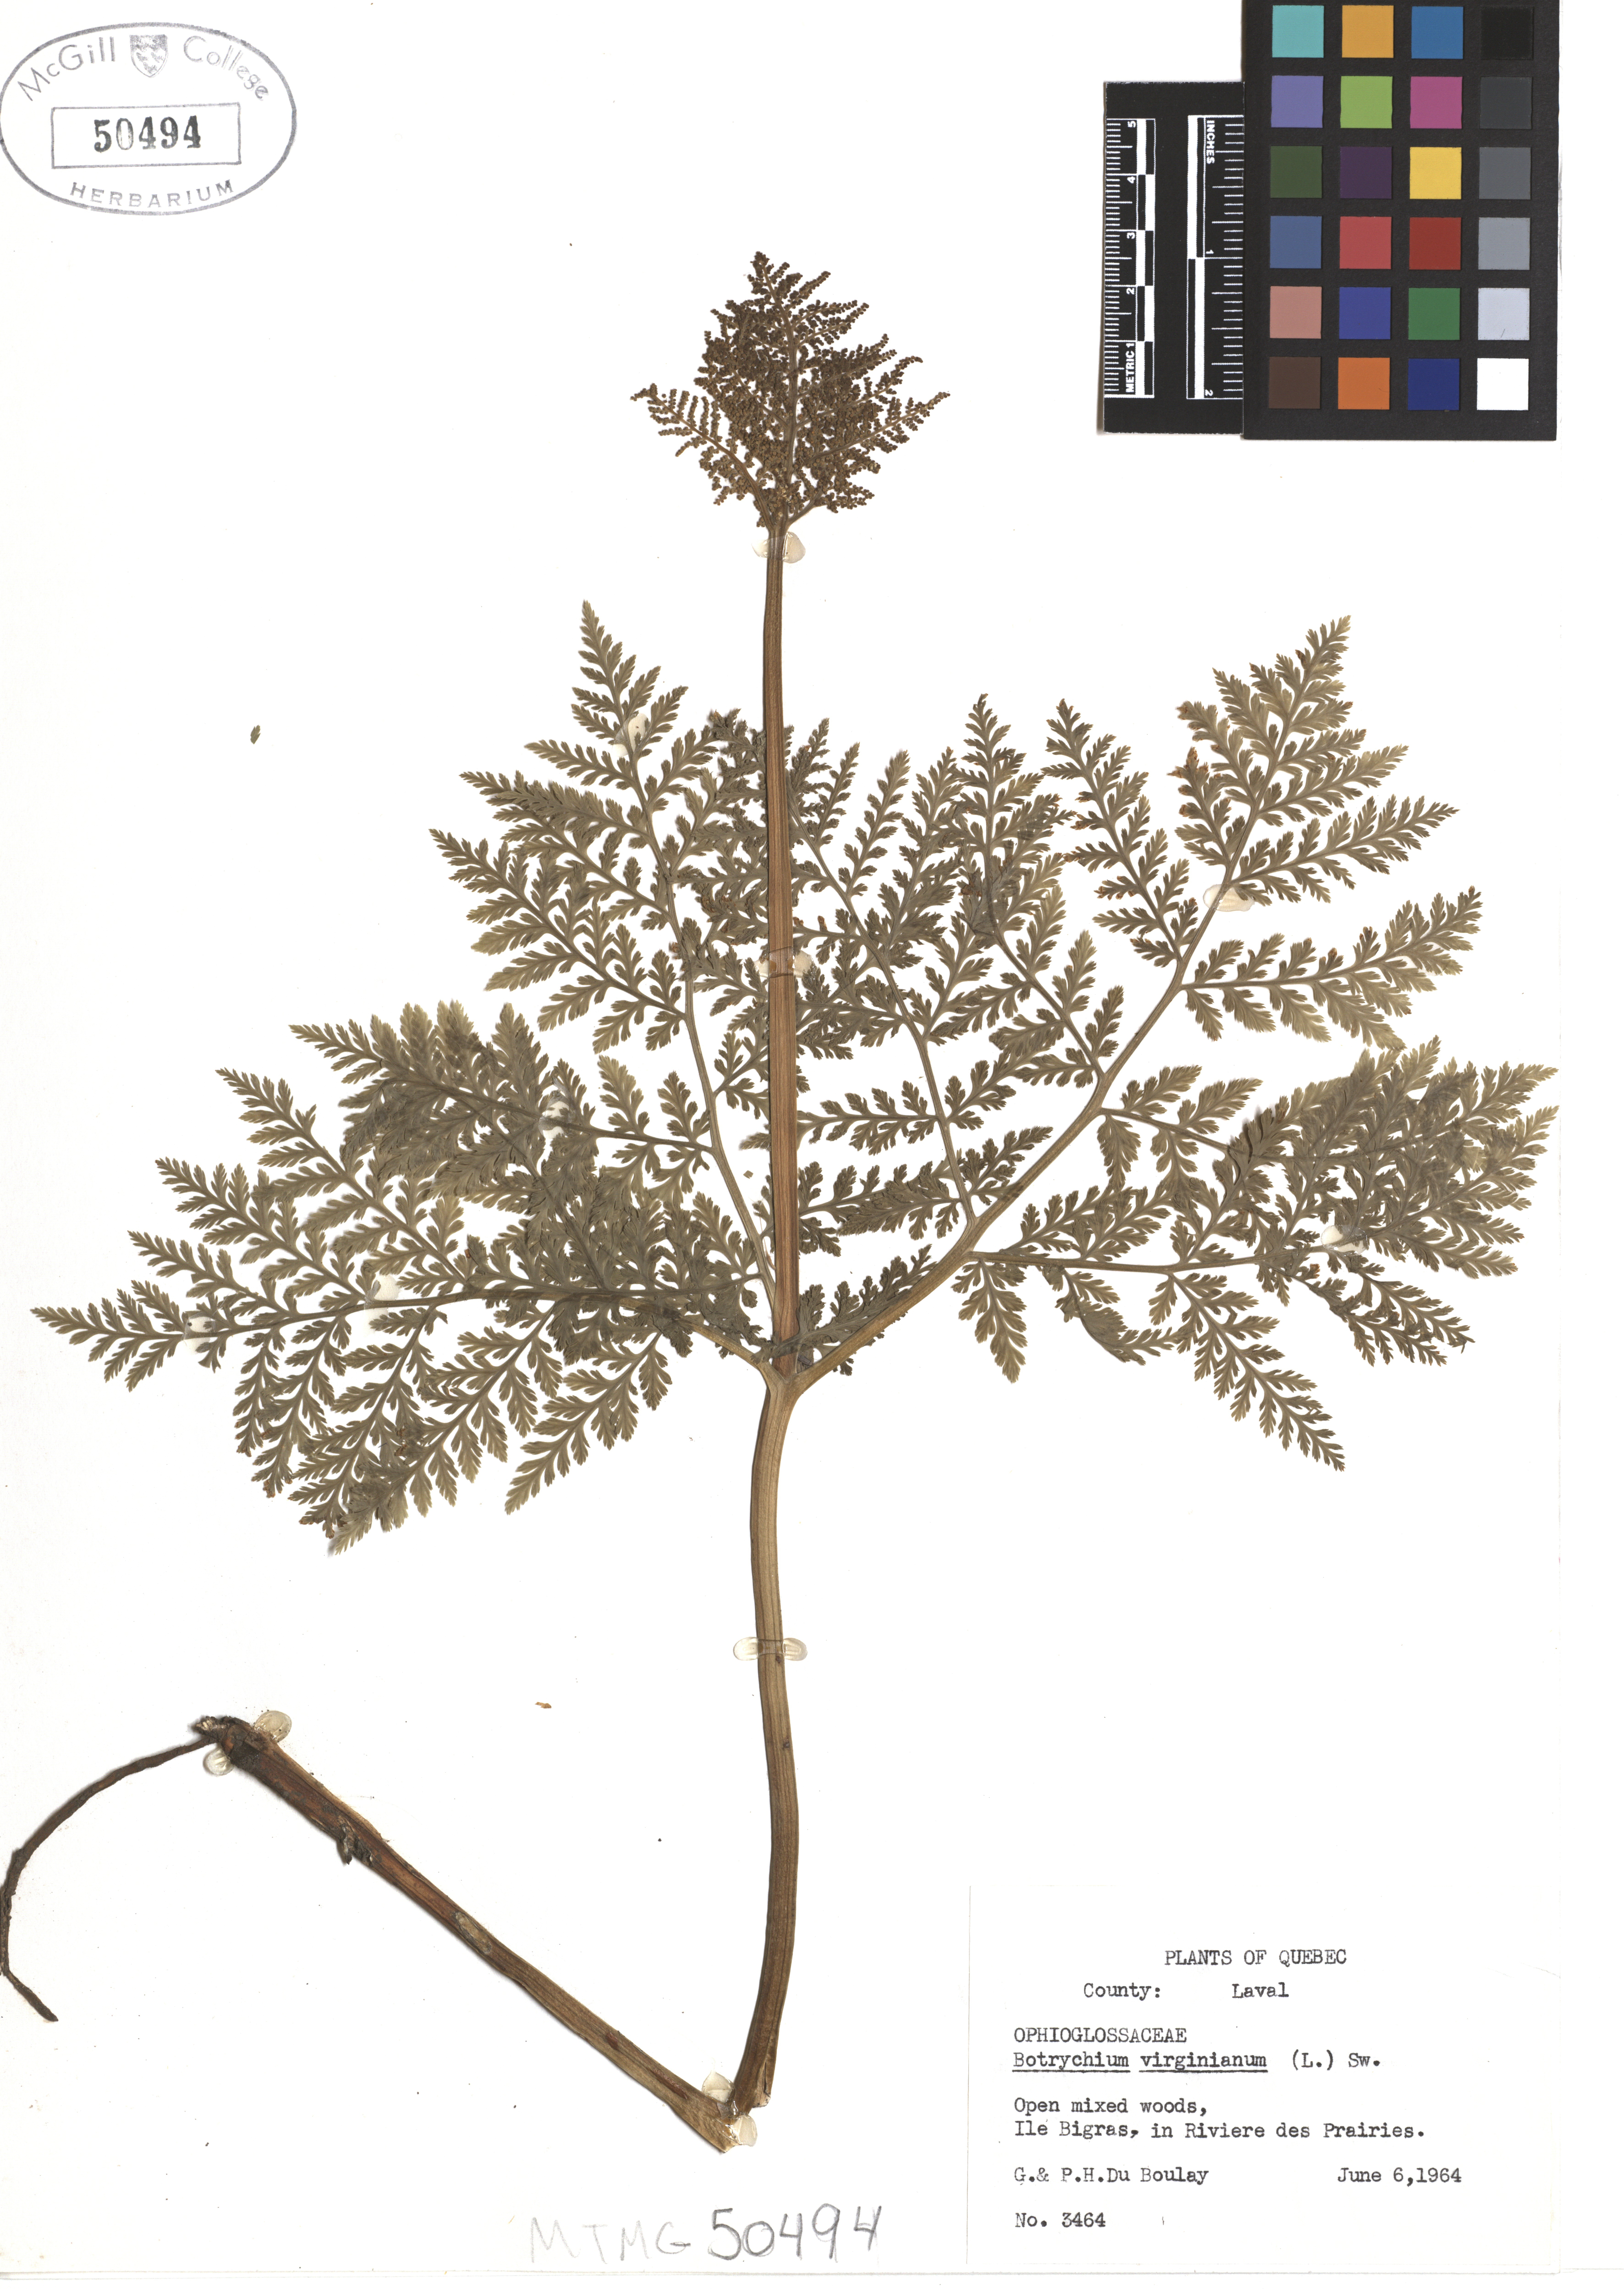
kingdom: Plantae
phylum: Tracheophyta
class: Polypodiopsida
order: Ophioglossales
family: Ophioglossaceae
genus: Botrypus
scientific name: Botrypus virginianus
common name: Common grapefern
